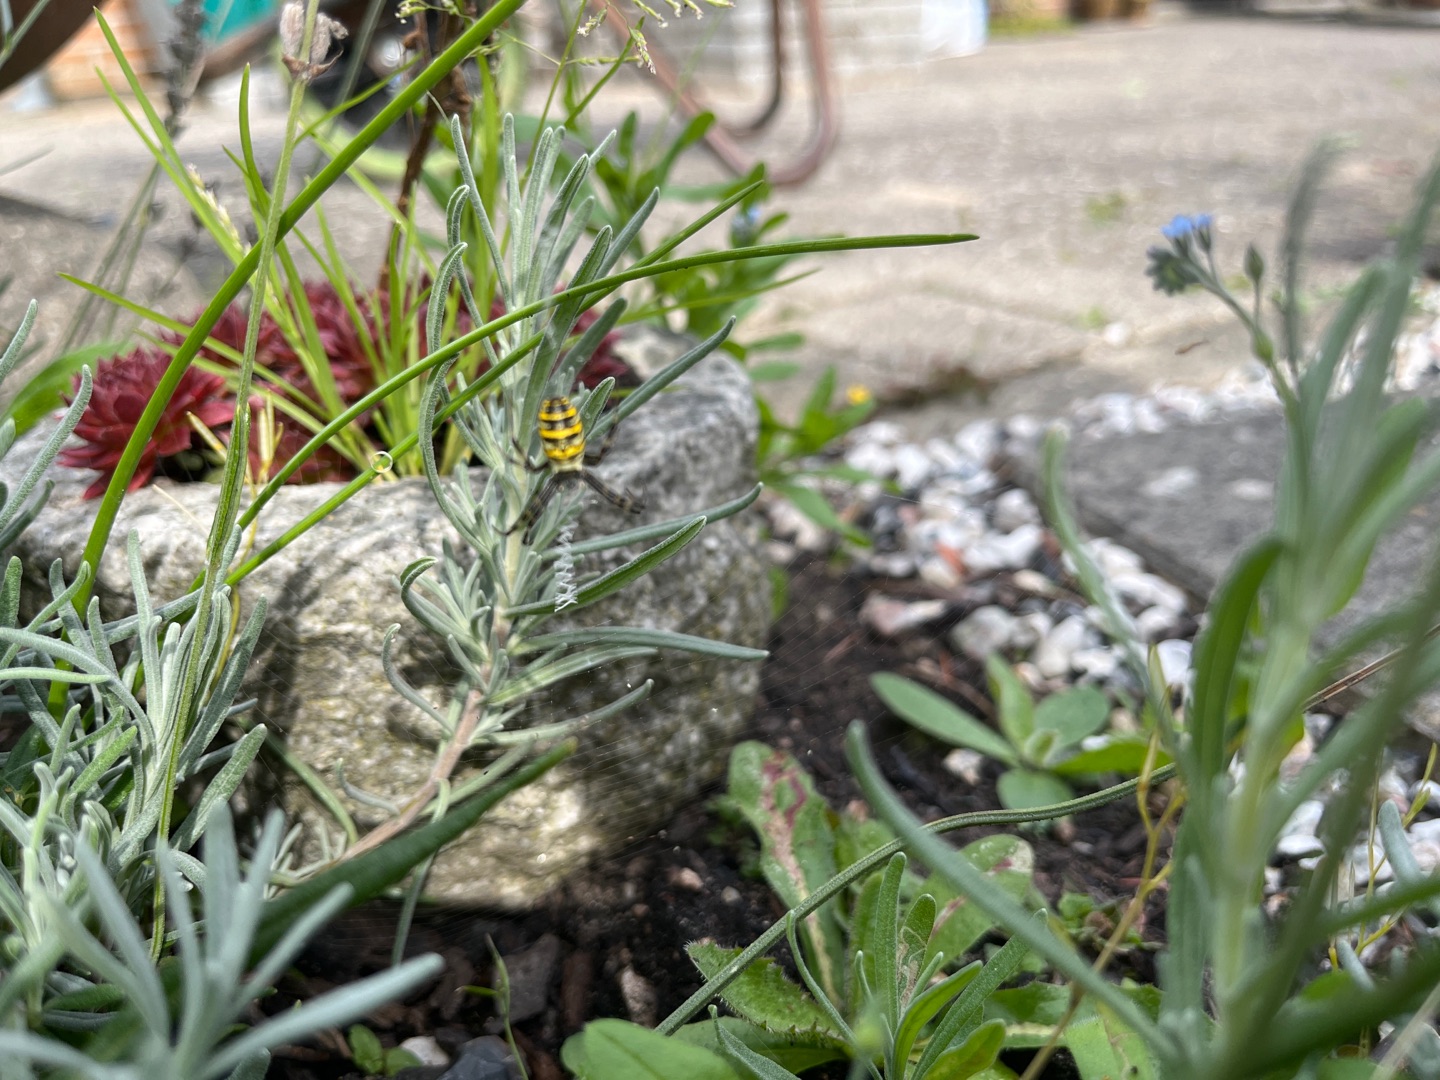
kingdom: Animalia
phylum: Arthropoda
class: Arachnida
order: Araneae
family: Araneidae
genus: Argiope
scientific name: Argiope bruennichi
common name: Hvepseedderkop
